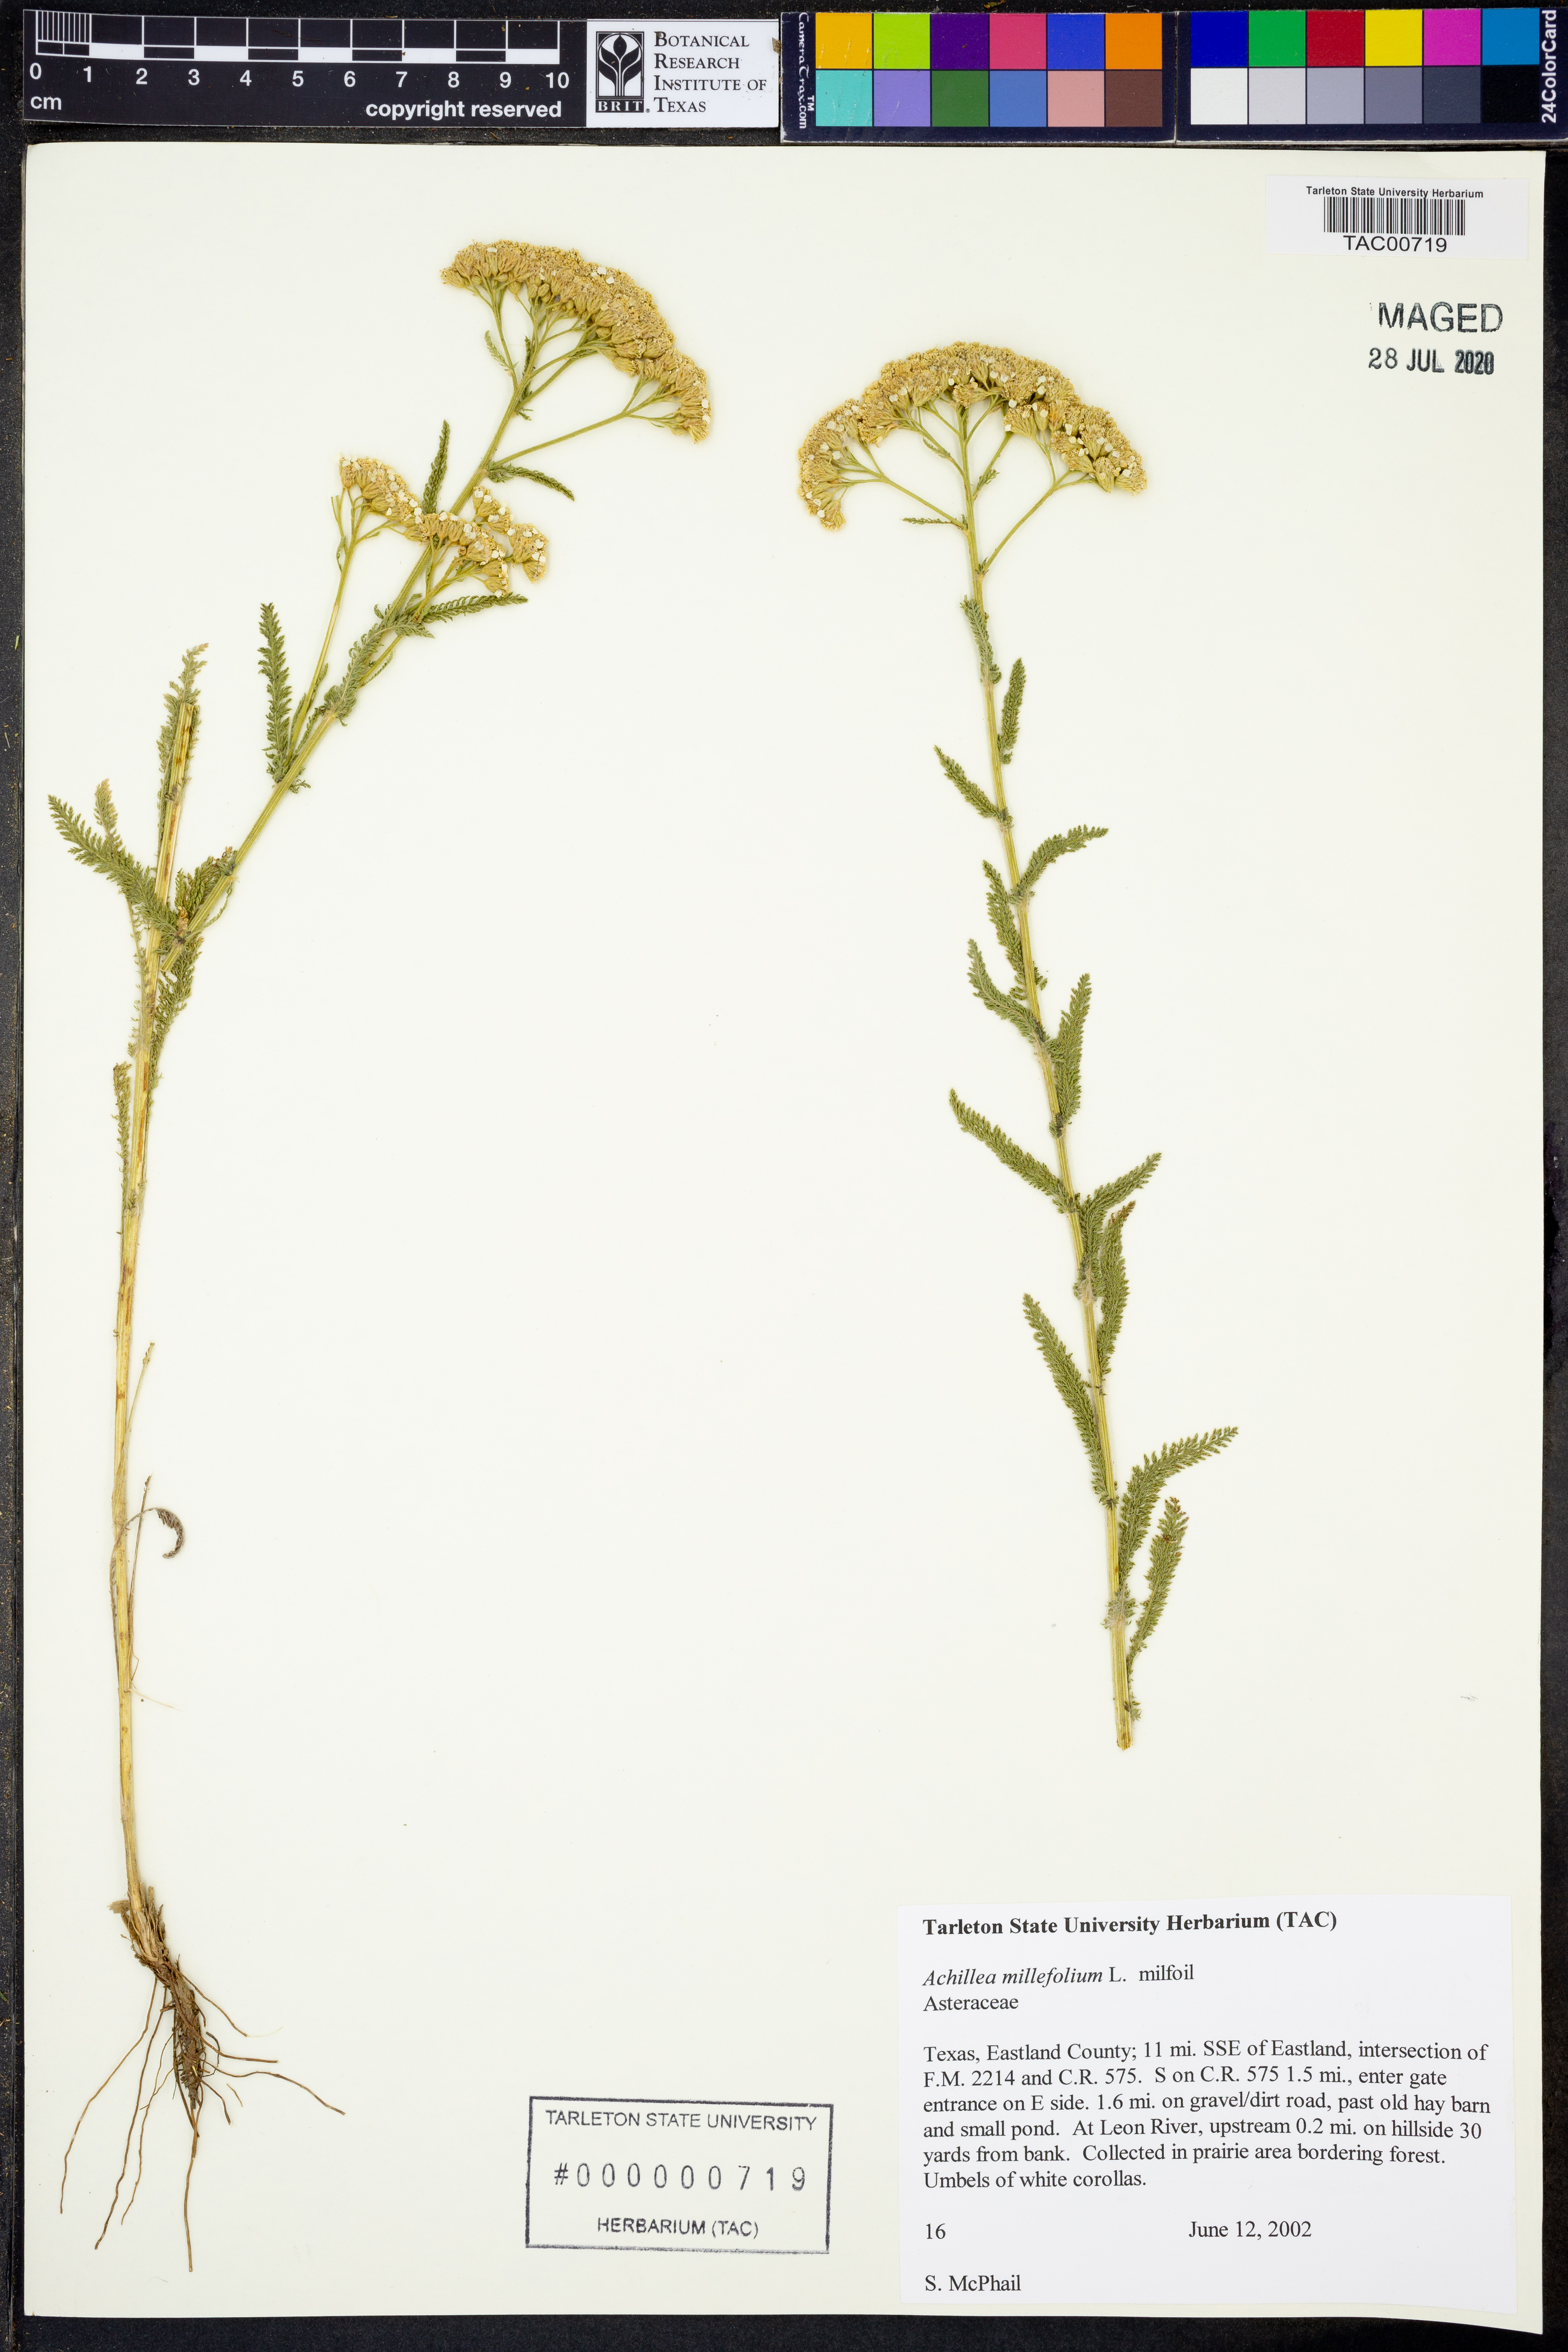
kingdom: Plantae
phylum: Tracheophyta
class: Magnoliopsida
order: Asterales
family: Asteraceae
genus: Achillea
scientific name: Achillea millefolium
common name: Yarrow
